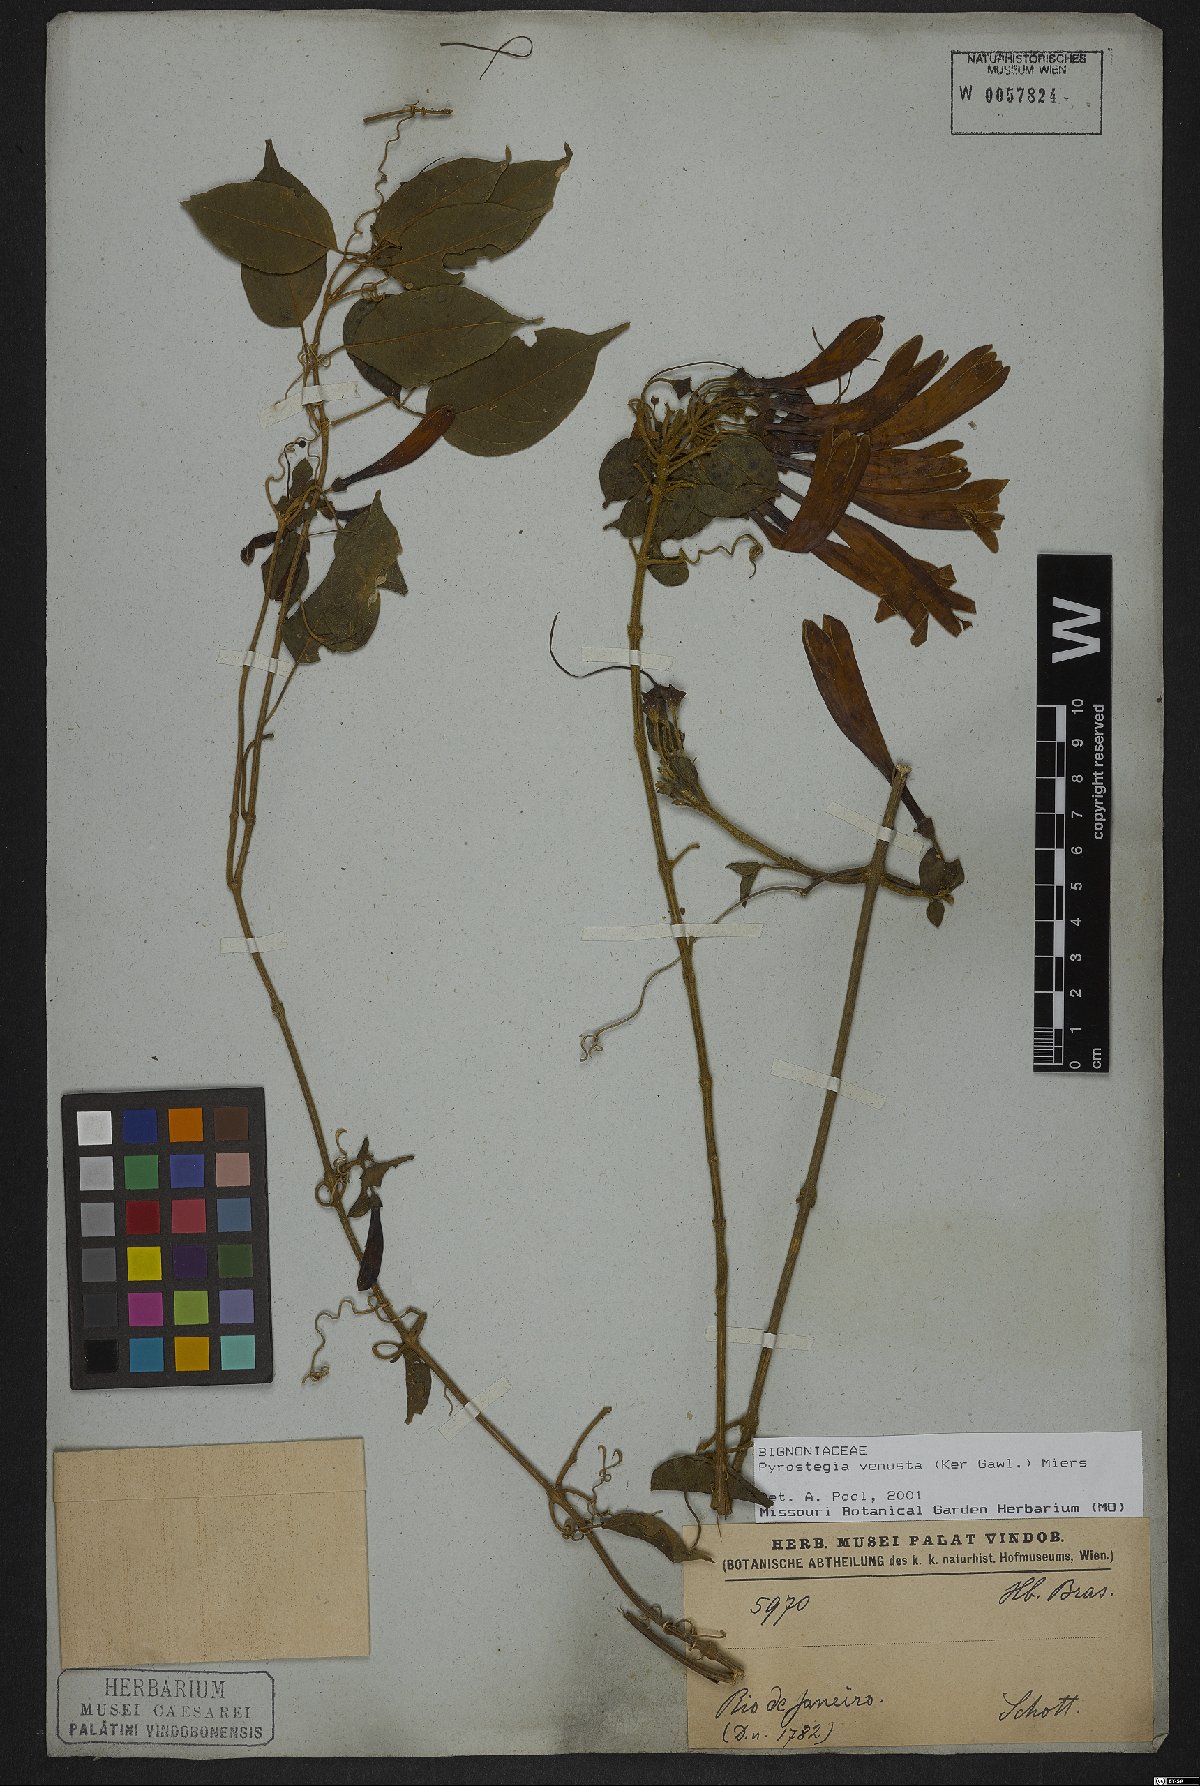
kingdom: Plantae
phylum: Tracheophyta
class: Magnoliopsida
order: Lamiales
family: Bignoniaceae
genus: Pyrostegia
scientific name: Pyrostegia venusta
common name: Flamevine
